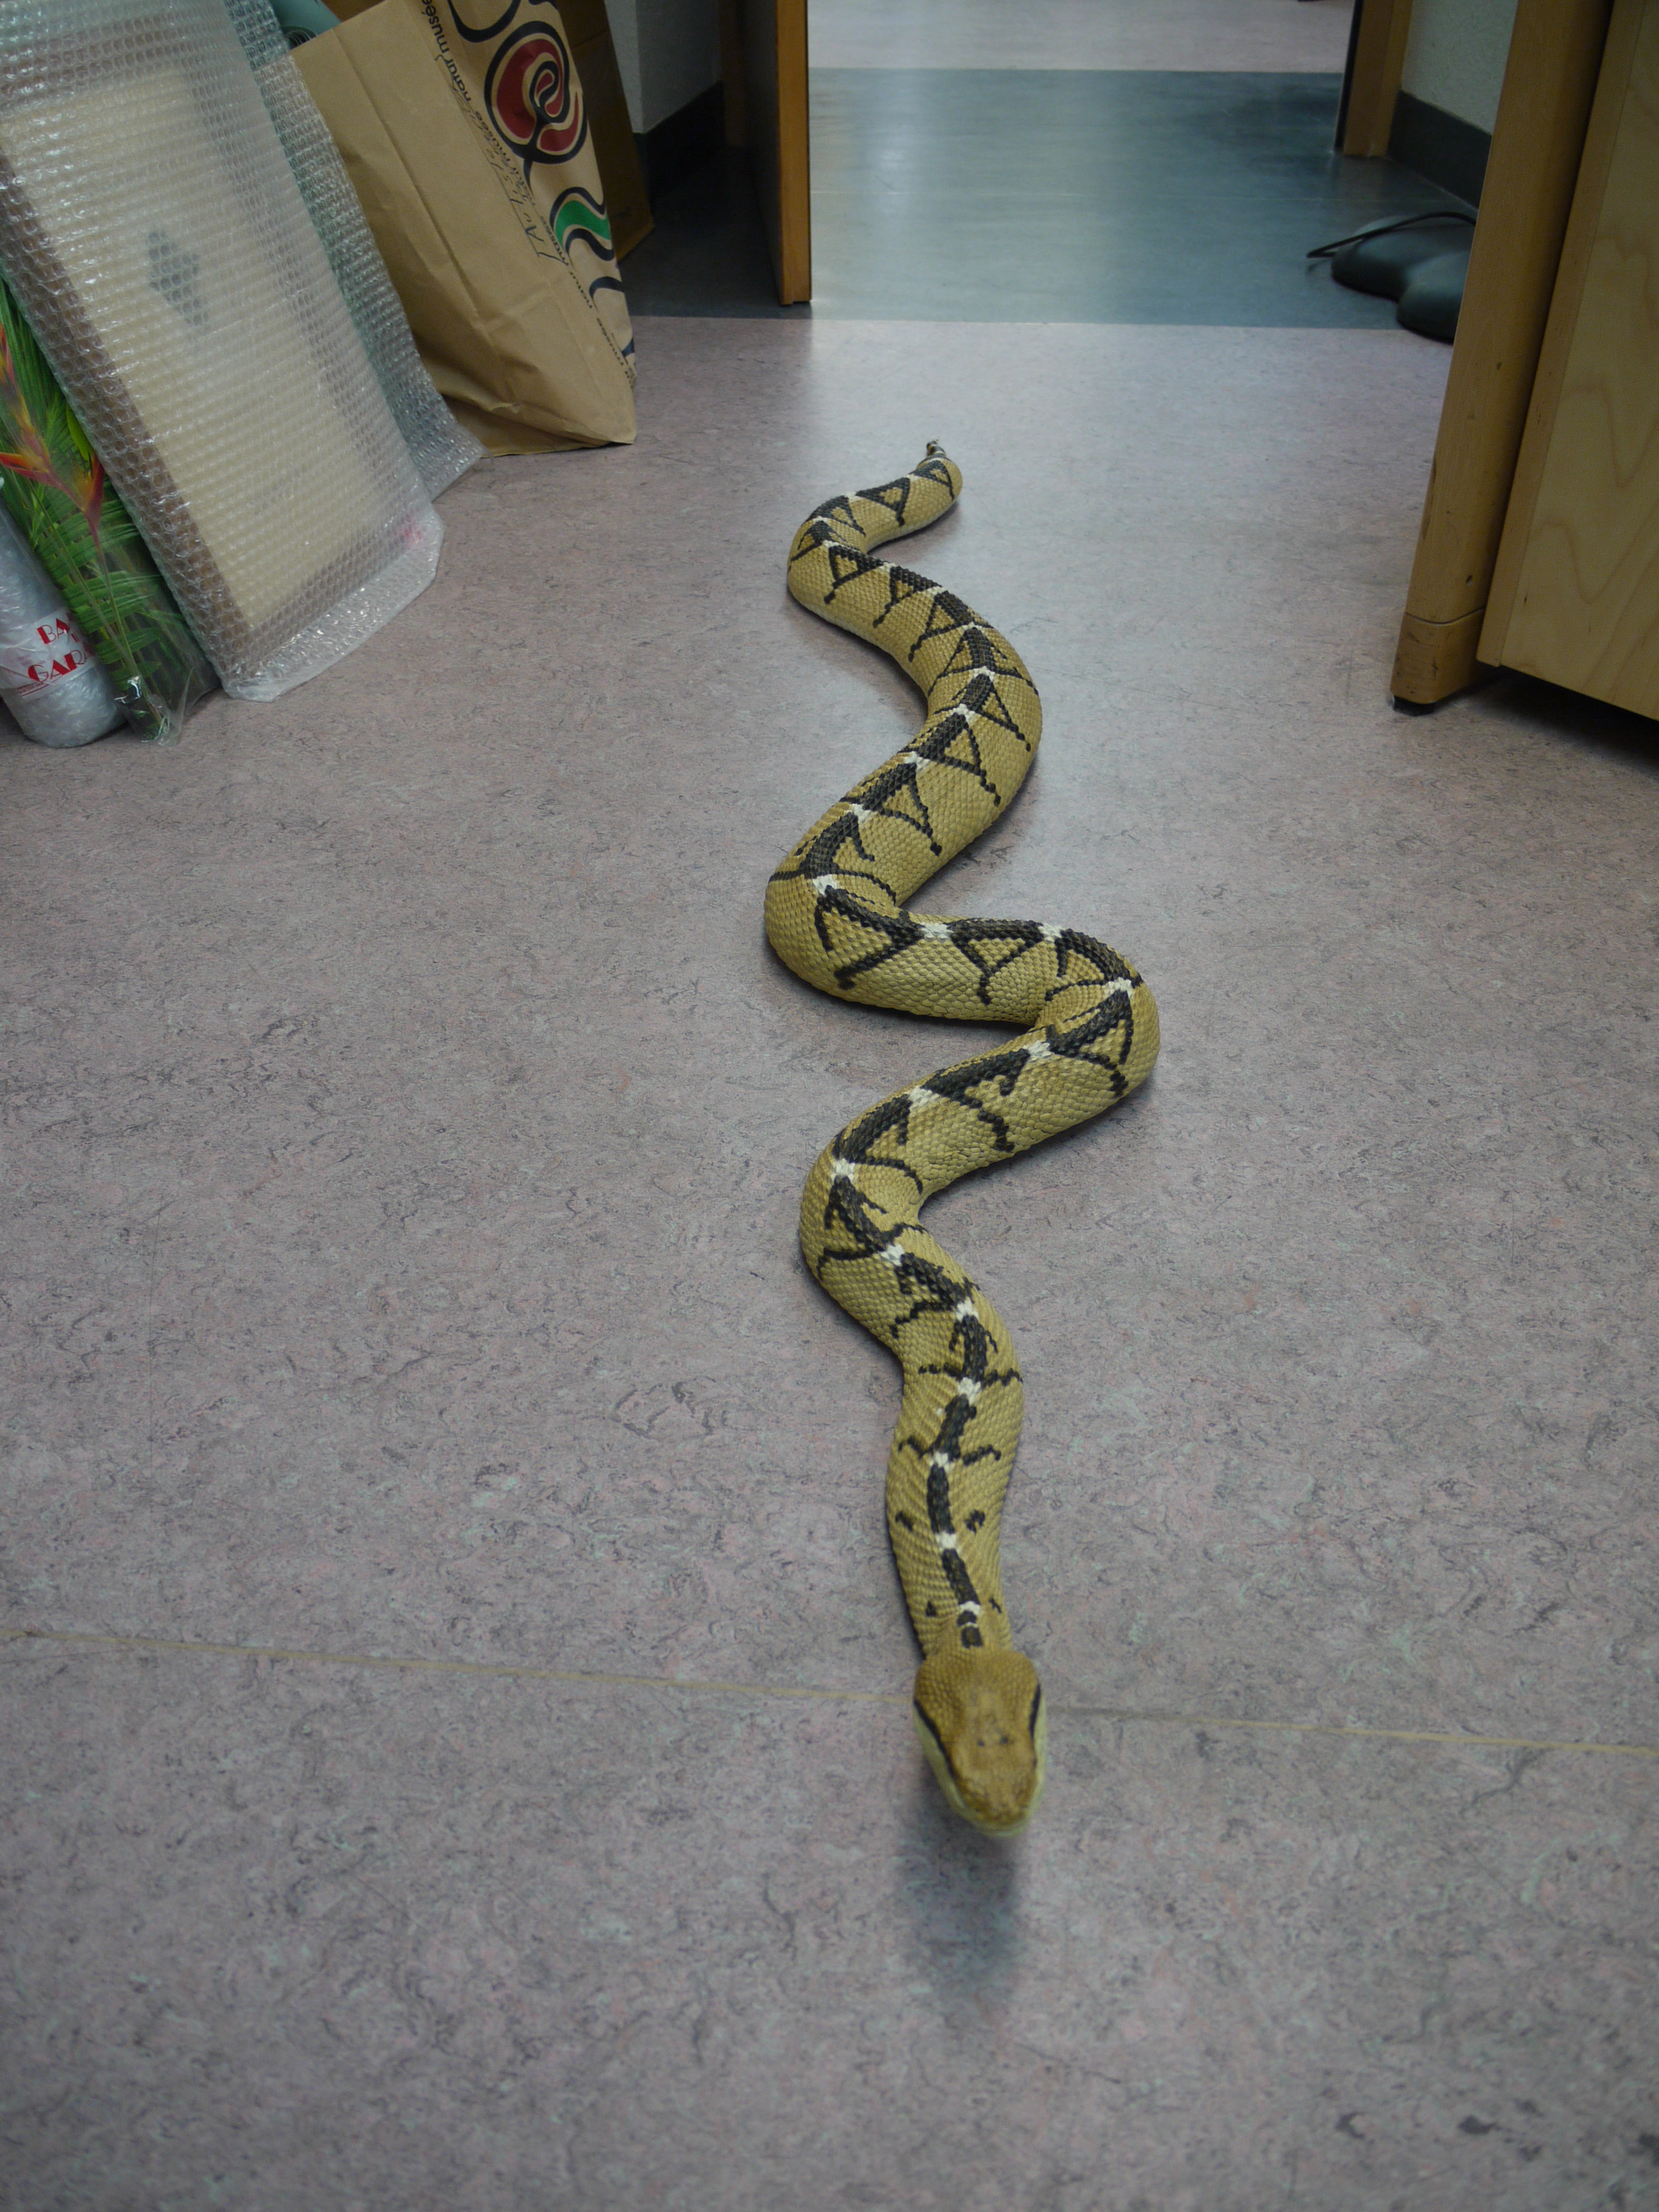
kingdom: Animalia
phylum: Chordata
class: Squamata
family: Viperidae
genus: Lachesis
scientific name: Lachesis muta
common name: South american bushmaster
